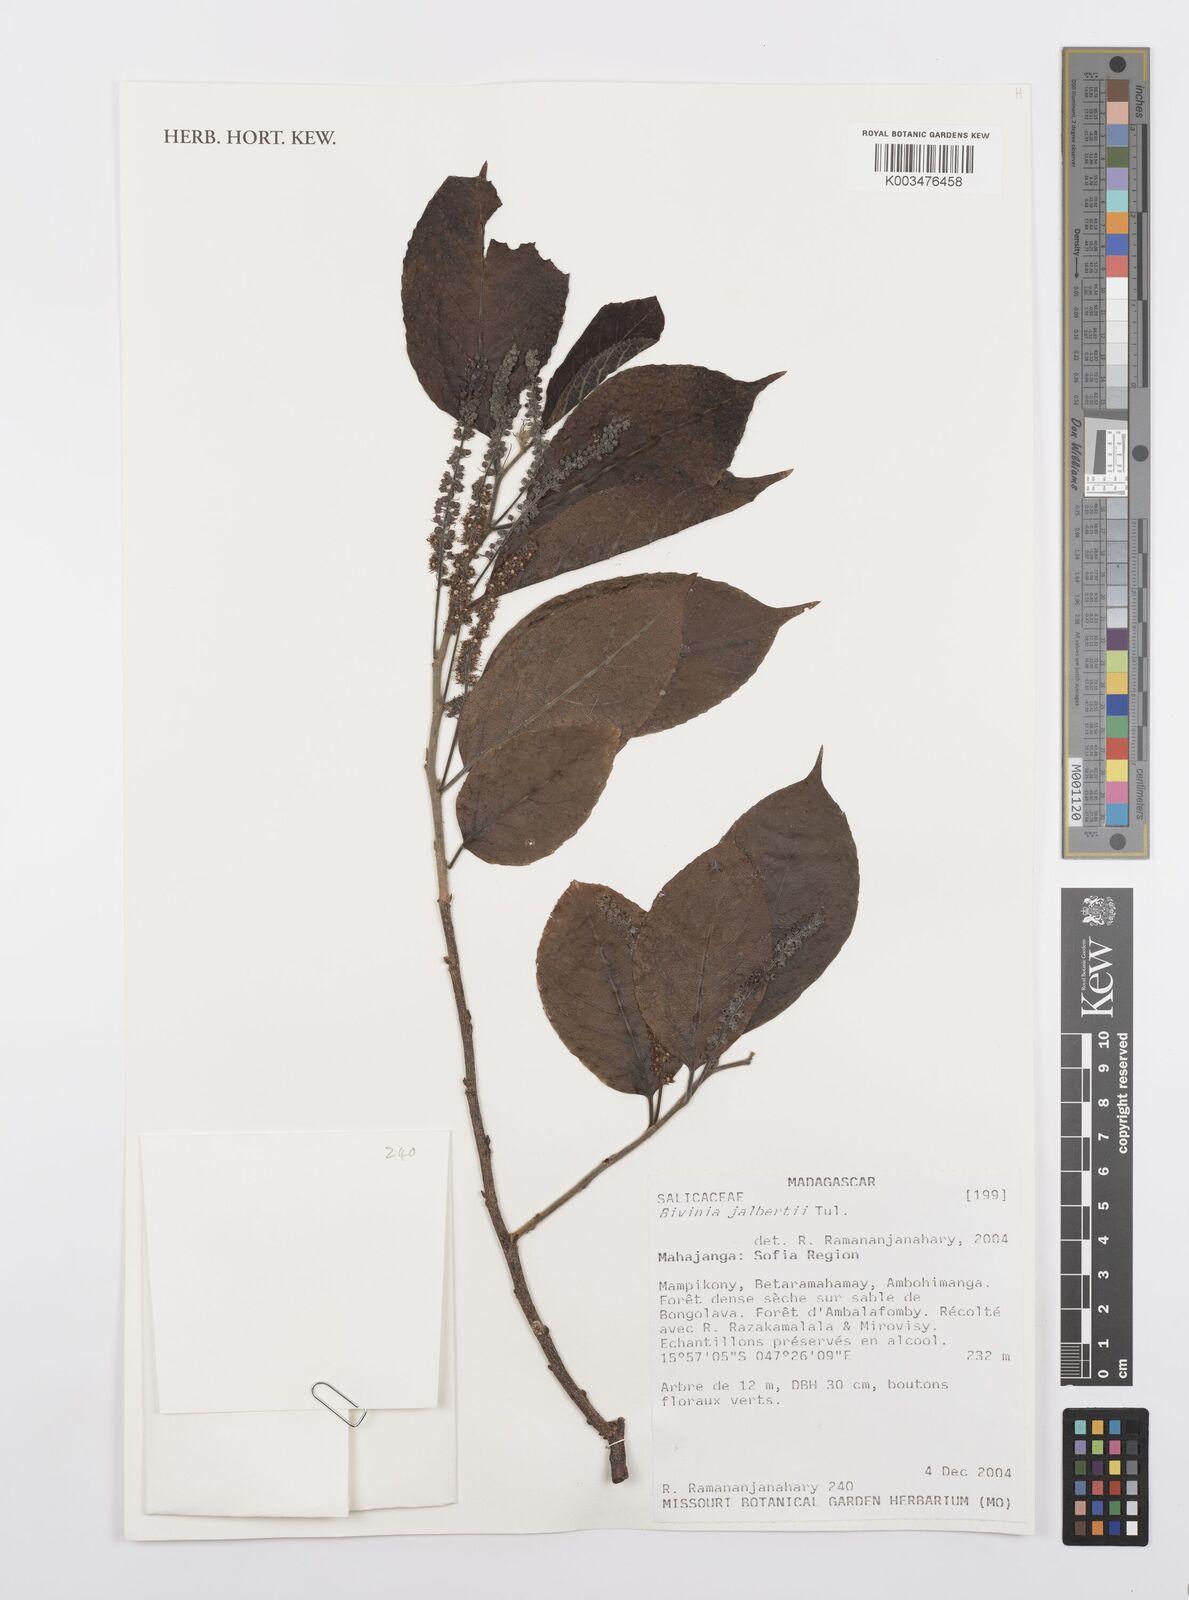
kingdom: Plantae
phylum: Tracheophyta
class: Magnoliopsida
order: Malpighiales
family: Salicaceae
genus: Bivinia
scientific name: Bivinia jalbertii
